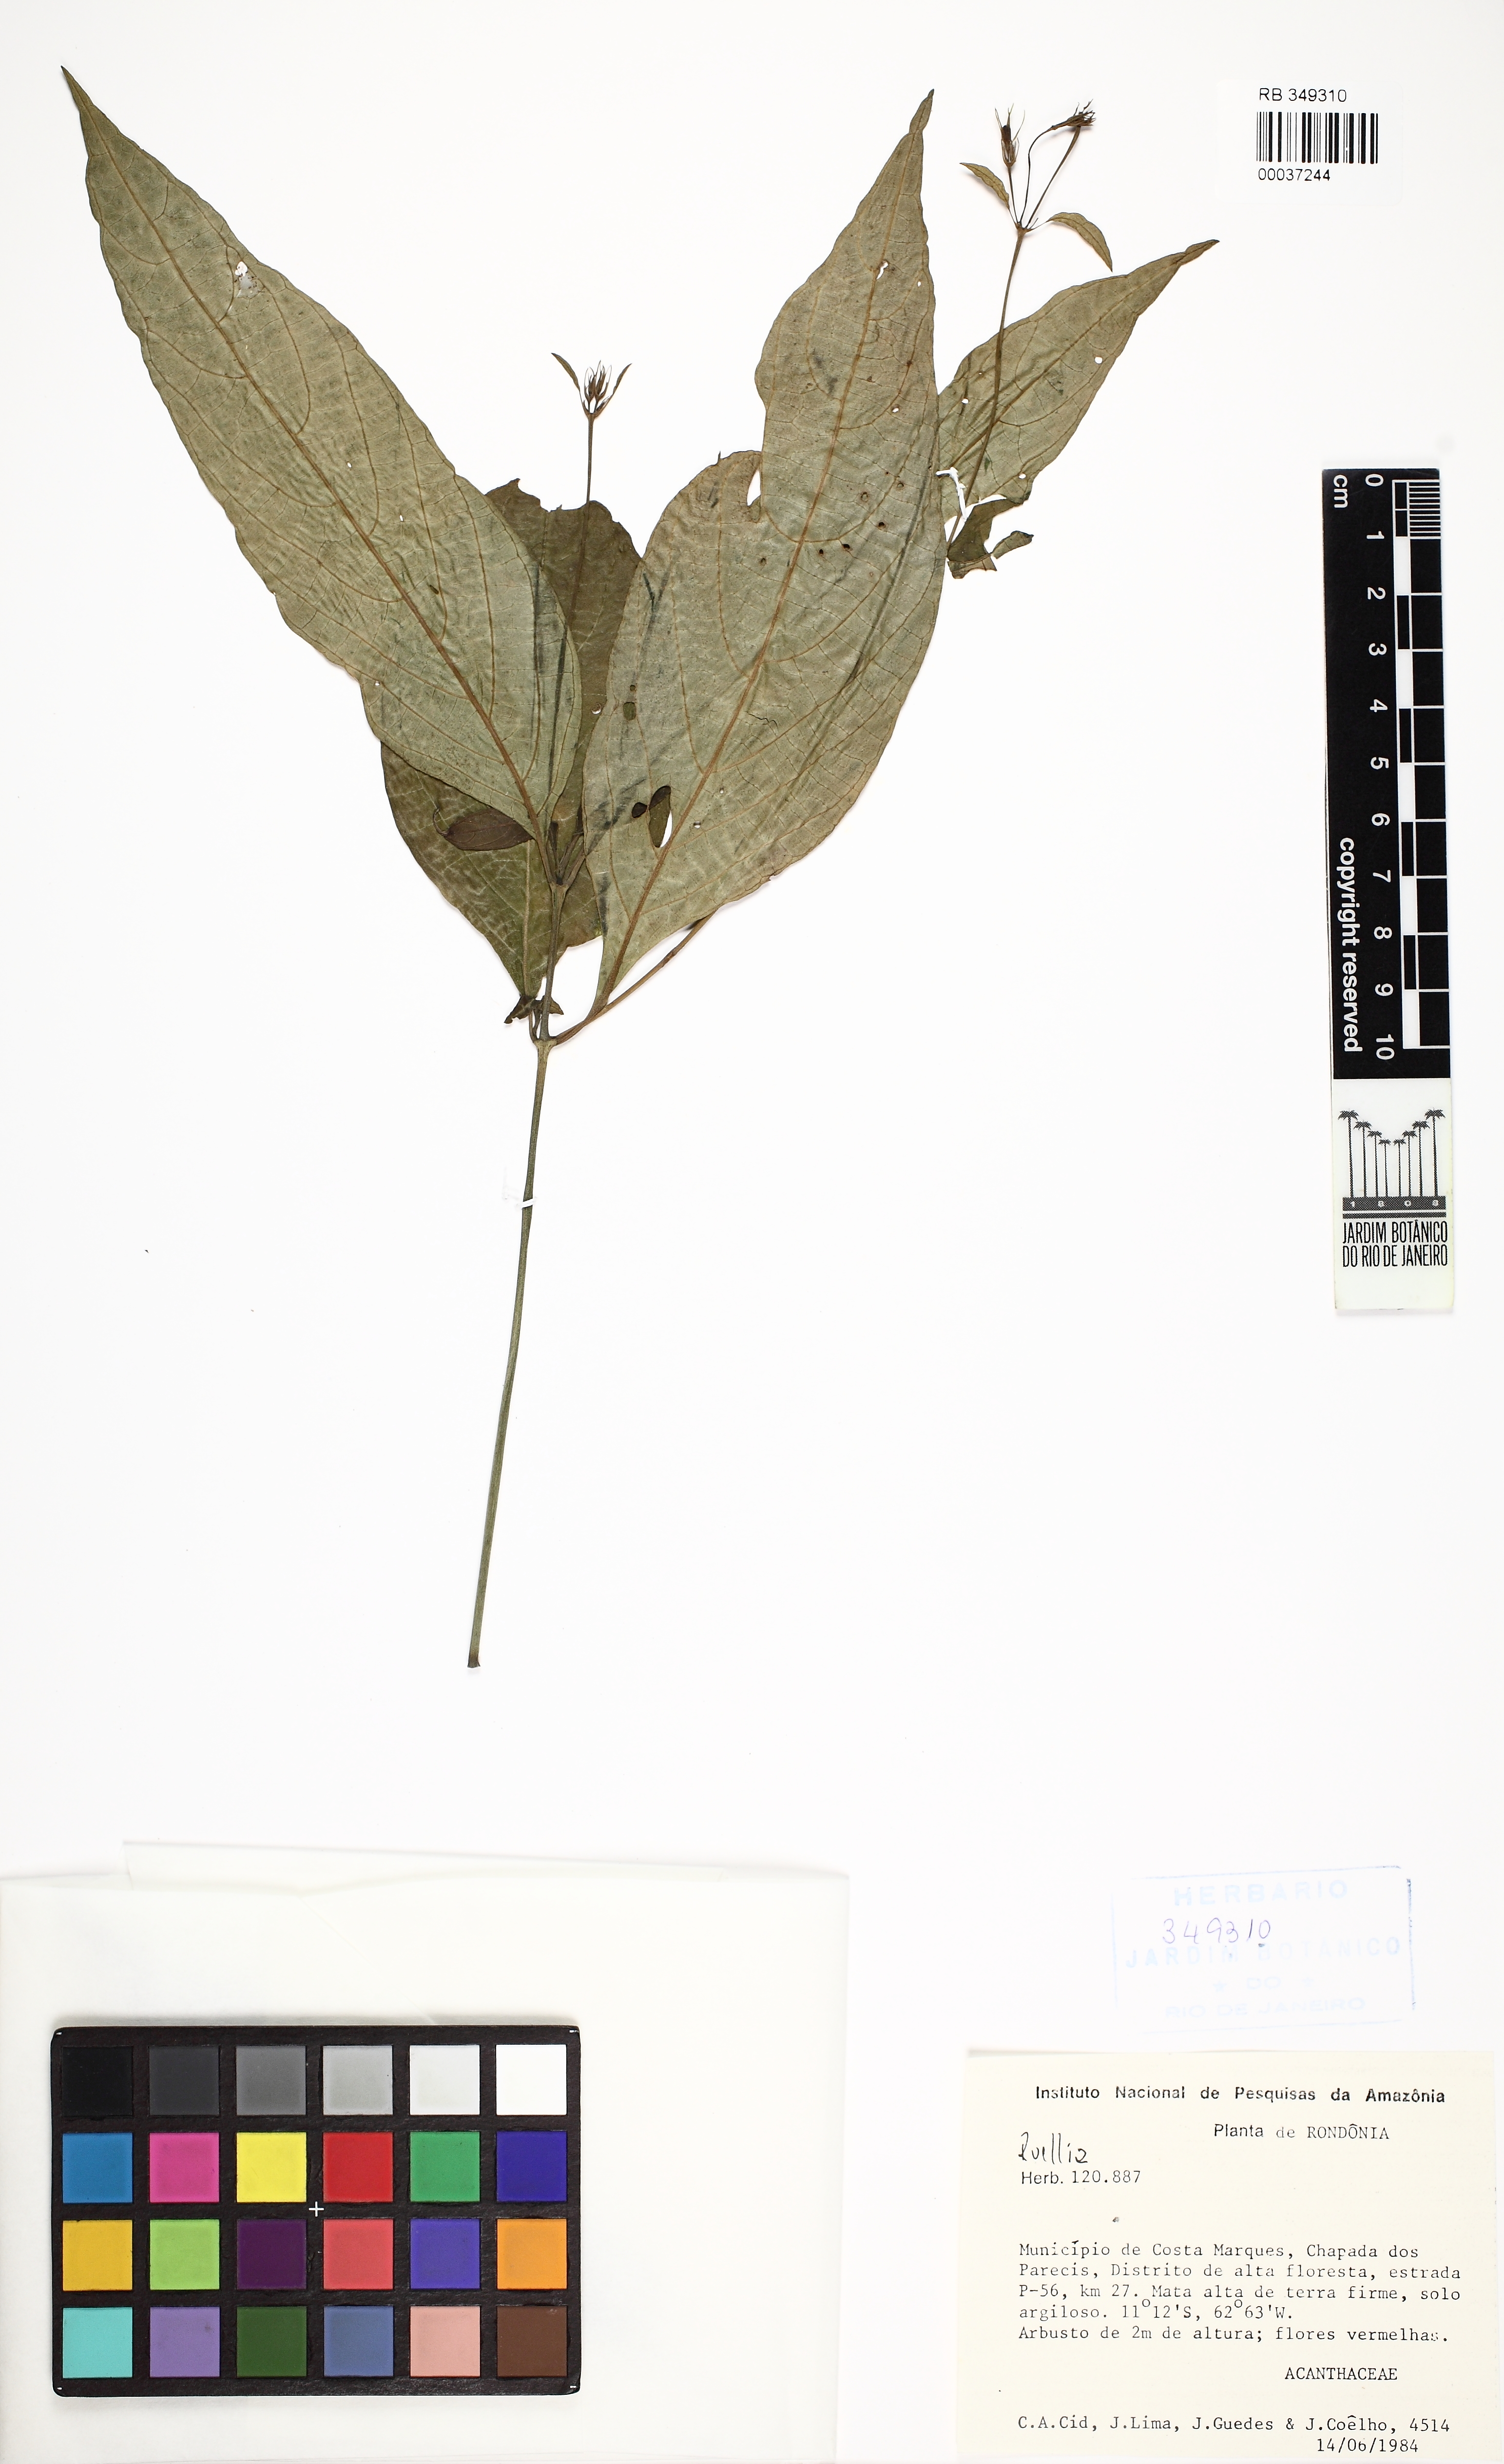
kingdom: Plantae
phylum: Tracheophyta
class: Magnoliopsida
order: Lamiales
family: Acanthaceae
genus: Ruellia
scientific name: Ruellia
